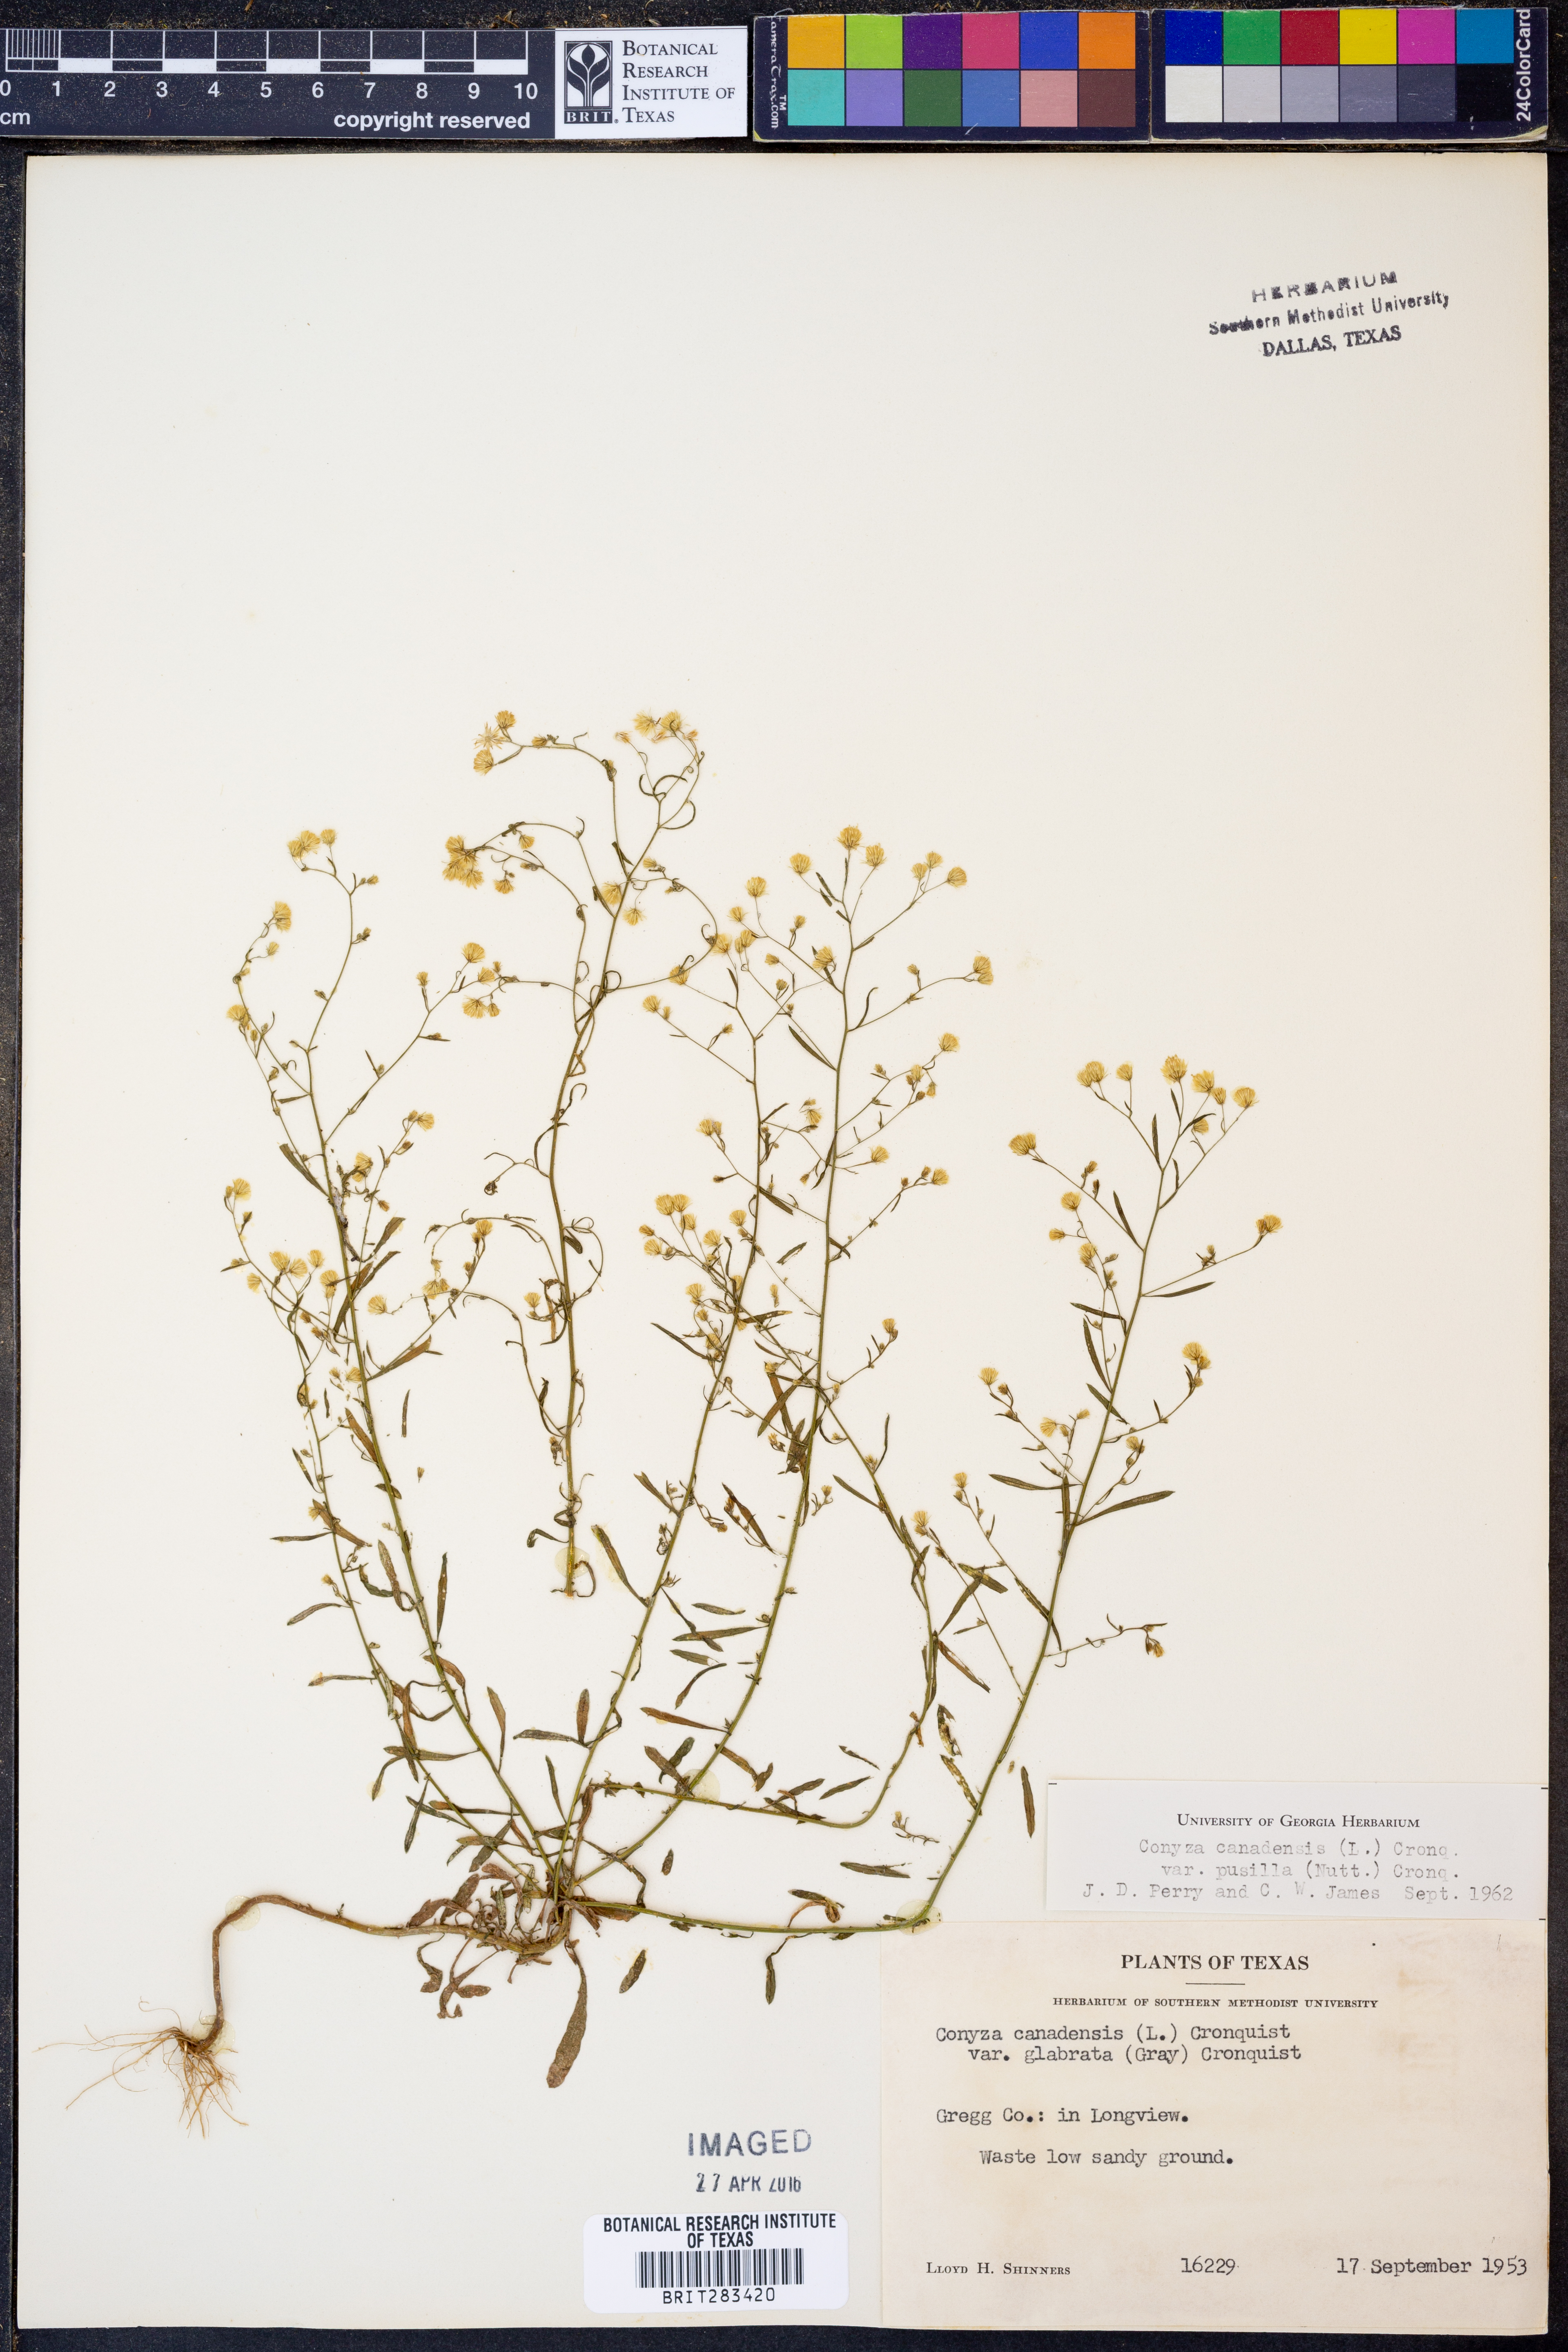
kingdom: Plantae
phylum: Tracheophyta
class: Magnoliopsida
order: Asterales
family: Asteraceae
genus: Erigeron
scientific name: Erigeron canadensis
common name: Canadian fleabane
